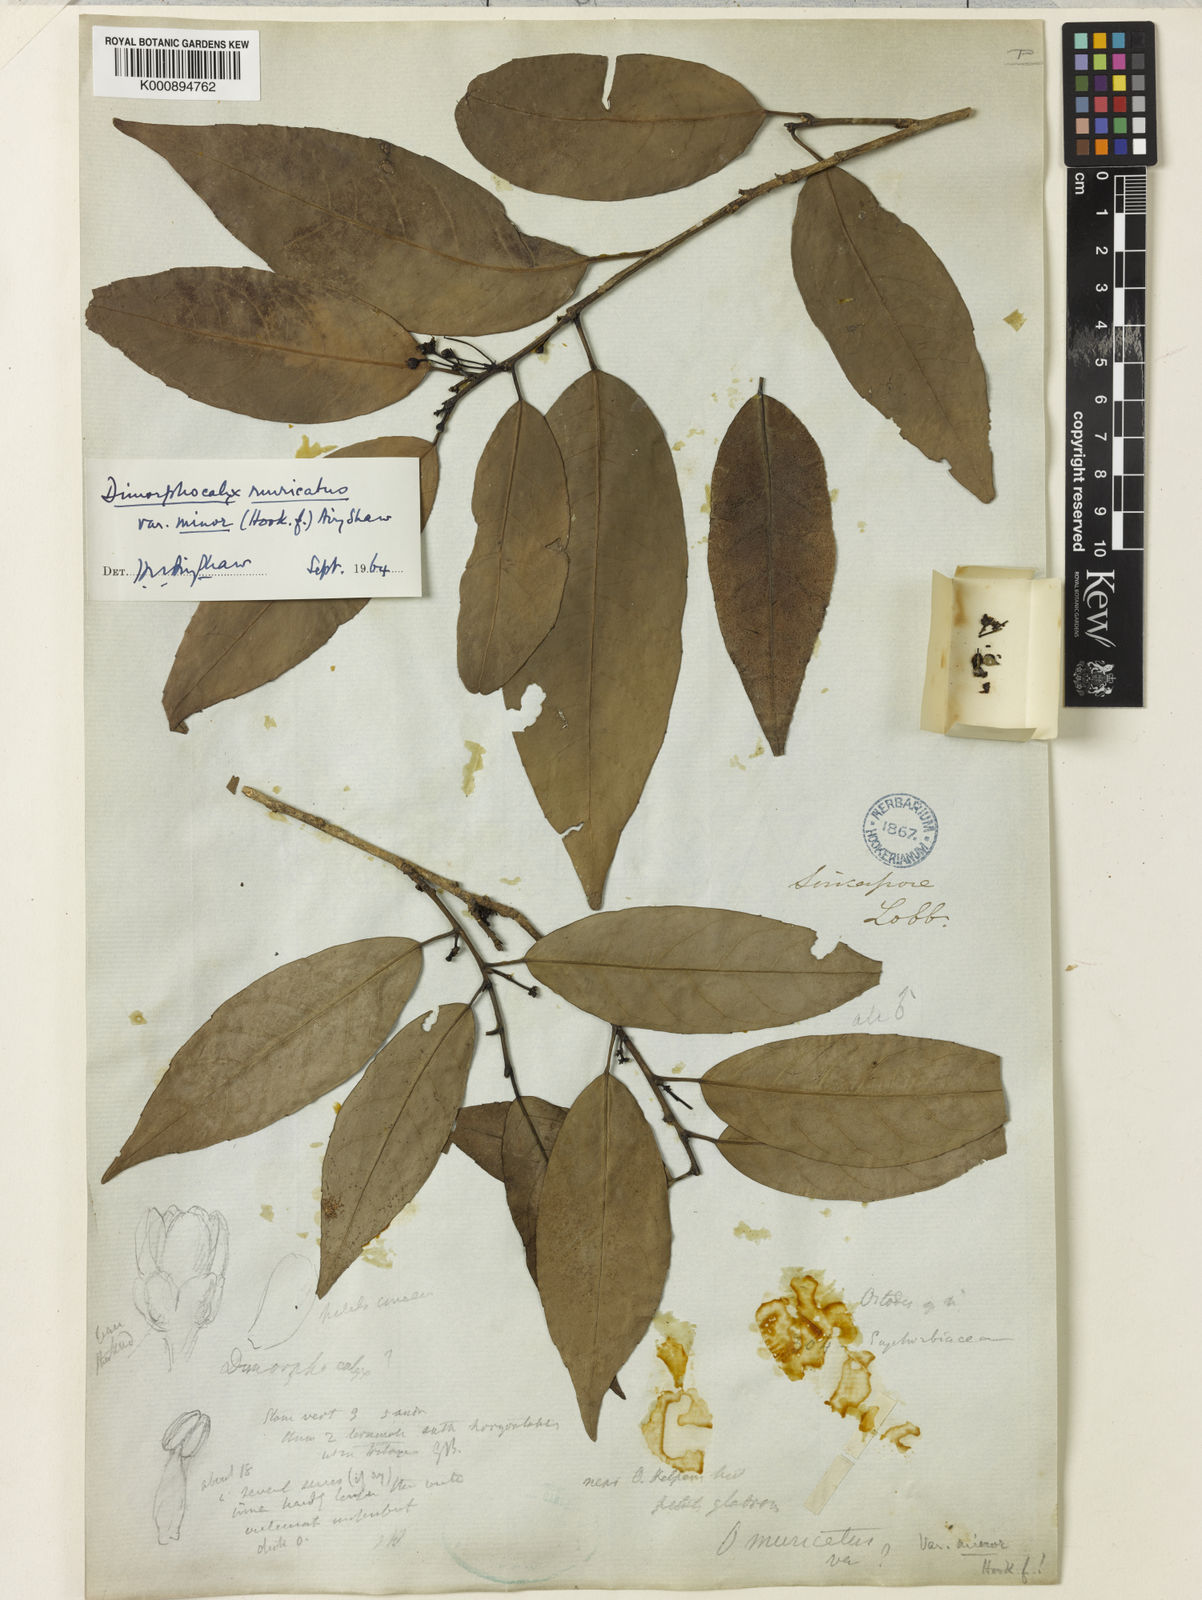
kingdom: Plantae
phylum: Tracheophyta
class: Magnoliopsida
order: Malpighiales
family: Euphorbiaceae
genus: Tritaxis
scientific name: Tritaxis muricata
